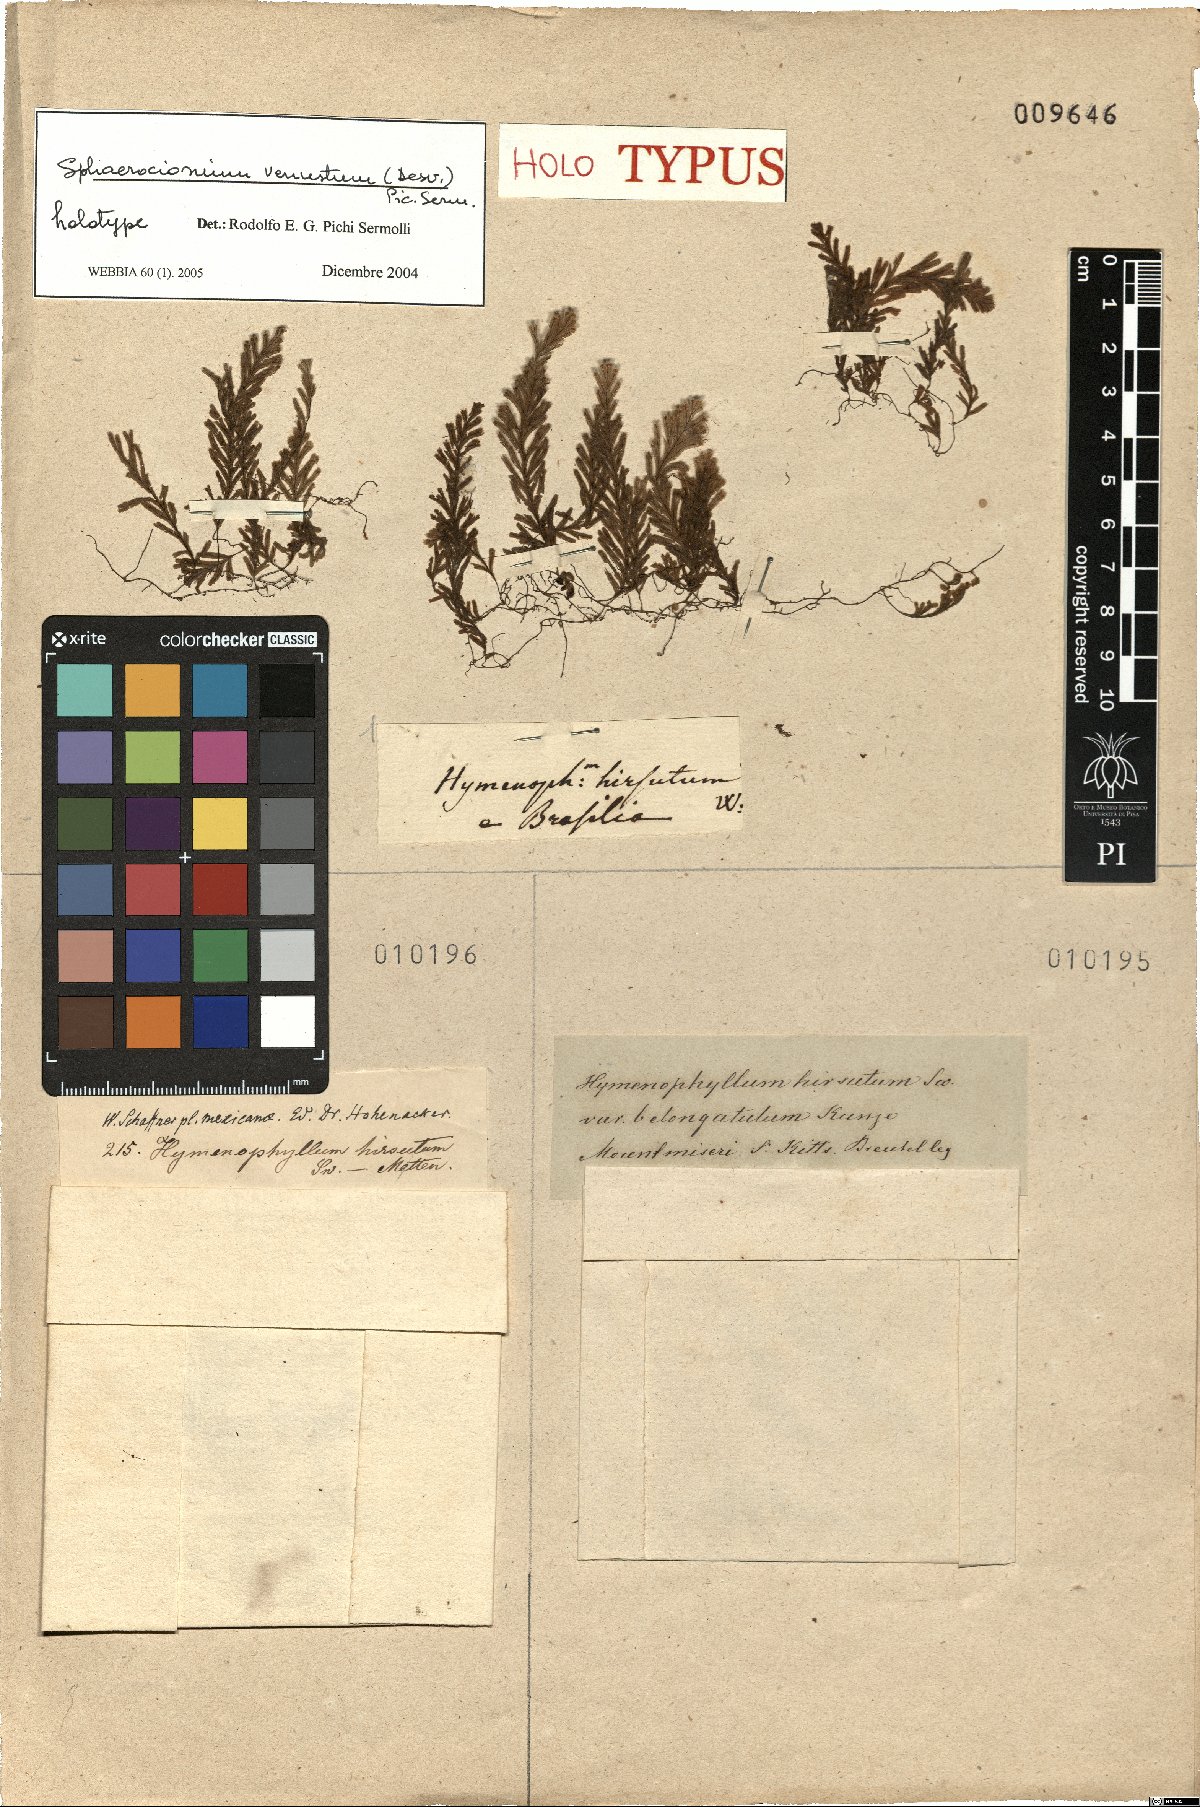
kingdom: Plantae
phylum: Tracheophyta
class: Polypodiopsida
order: Hymenophyllales
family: Hymenophyllaceae
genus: Hymenophyllum
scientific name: Hymenophyllum fragile
